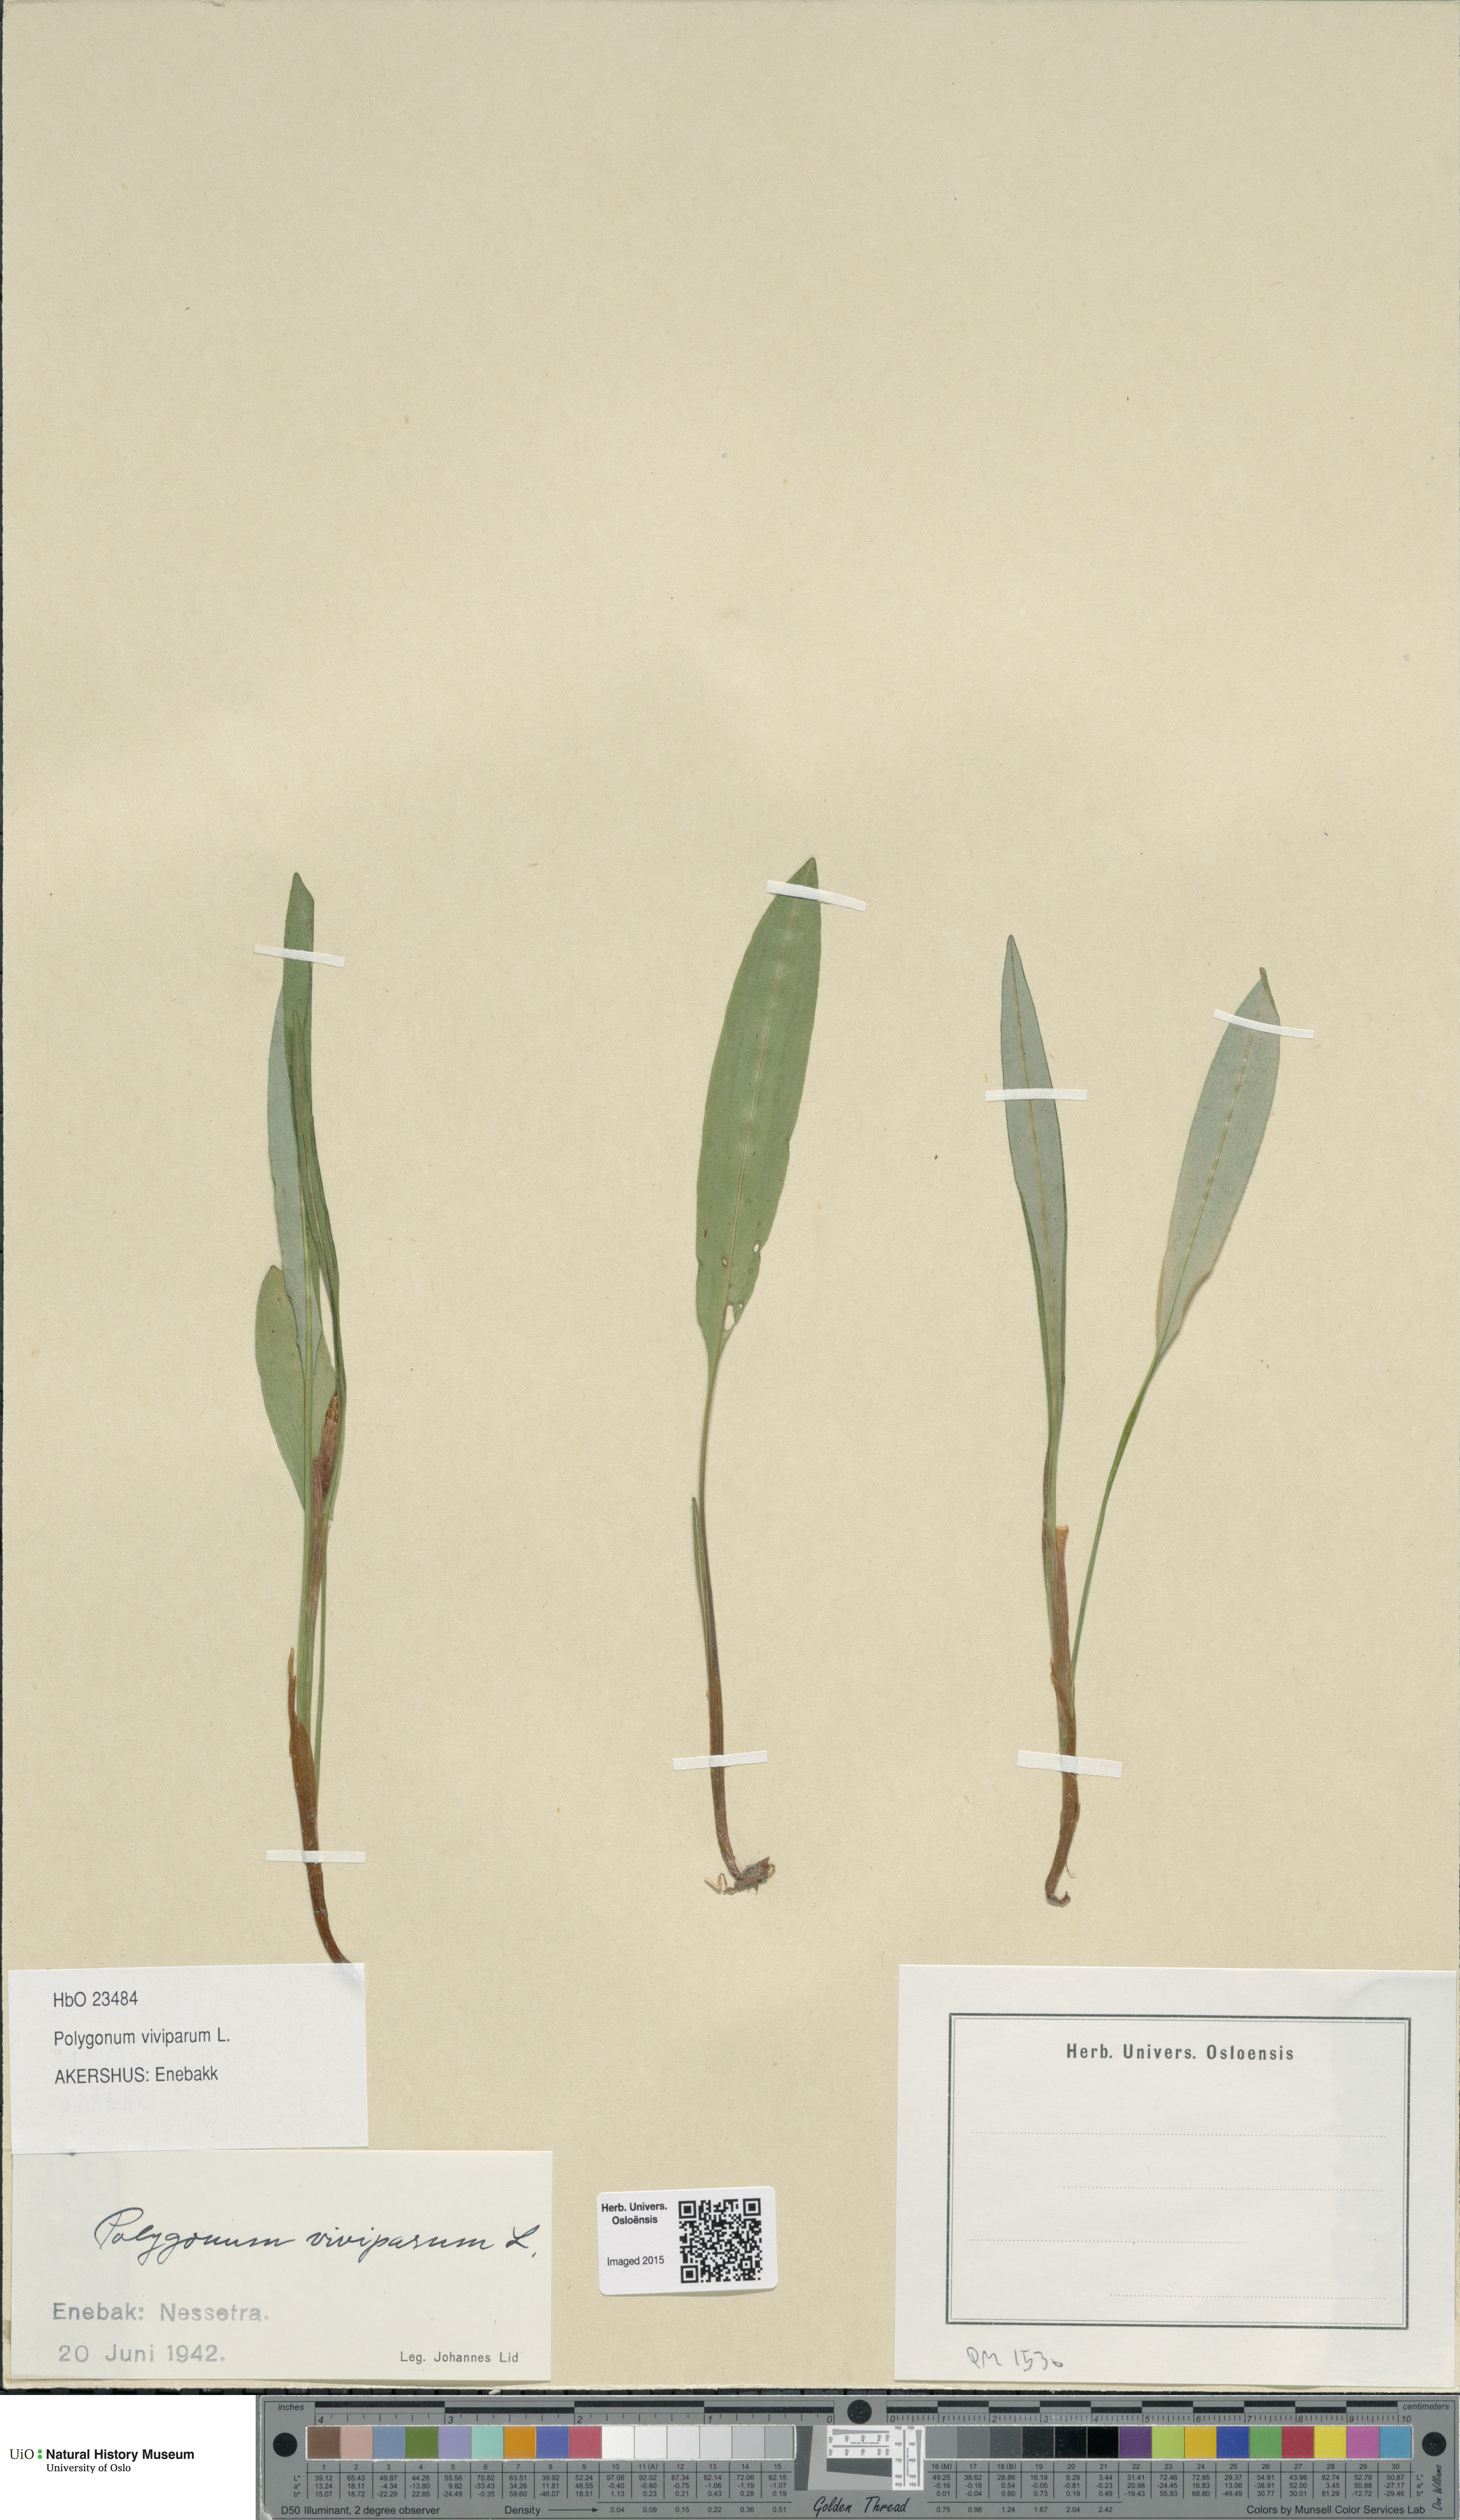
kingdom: Plantae
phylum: Tracheophyta
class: Magnoliopsida
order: Caryophyllales
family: Polygonaceae
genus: Bistorta
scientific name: Bistorta vivipara
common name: Alpine bistort
